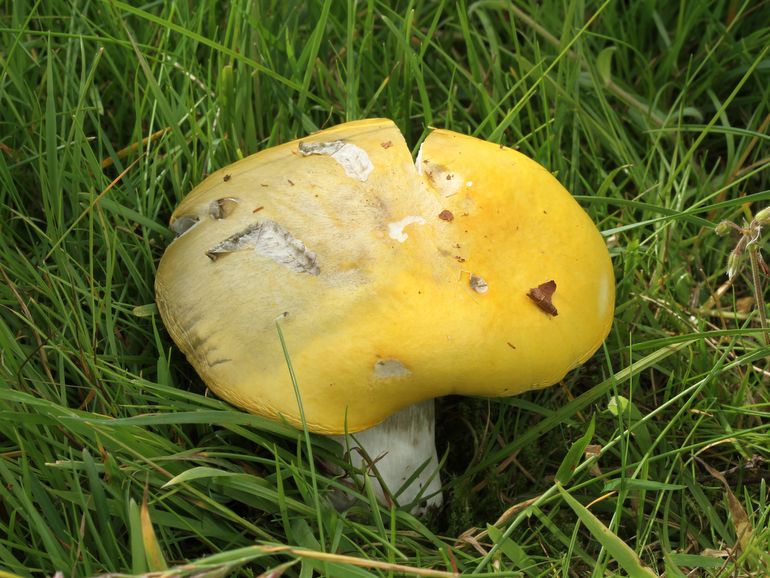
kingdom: Fungi
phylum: Basidiomycota
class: Agaricomycetes
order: Russulales
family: Russulaceae
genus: Russula
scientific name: Russula claroflava
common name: birke-skørhat
